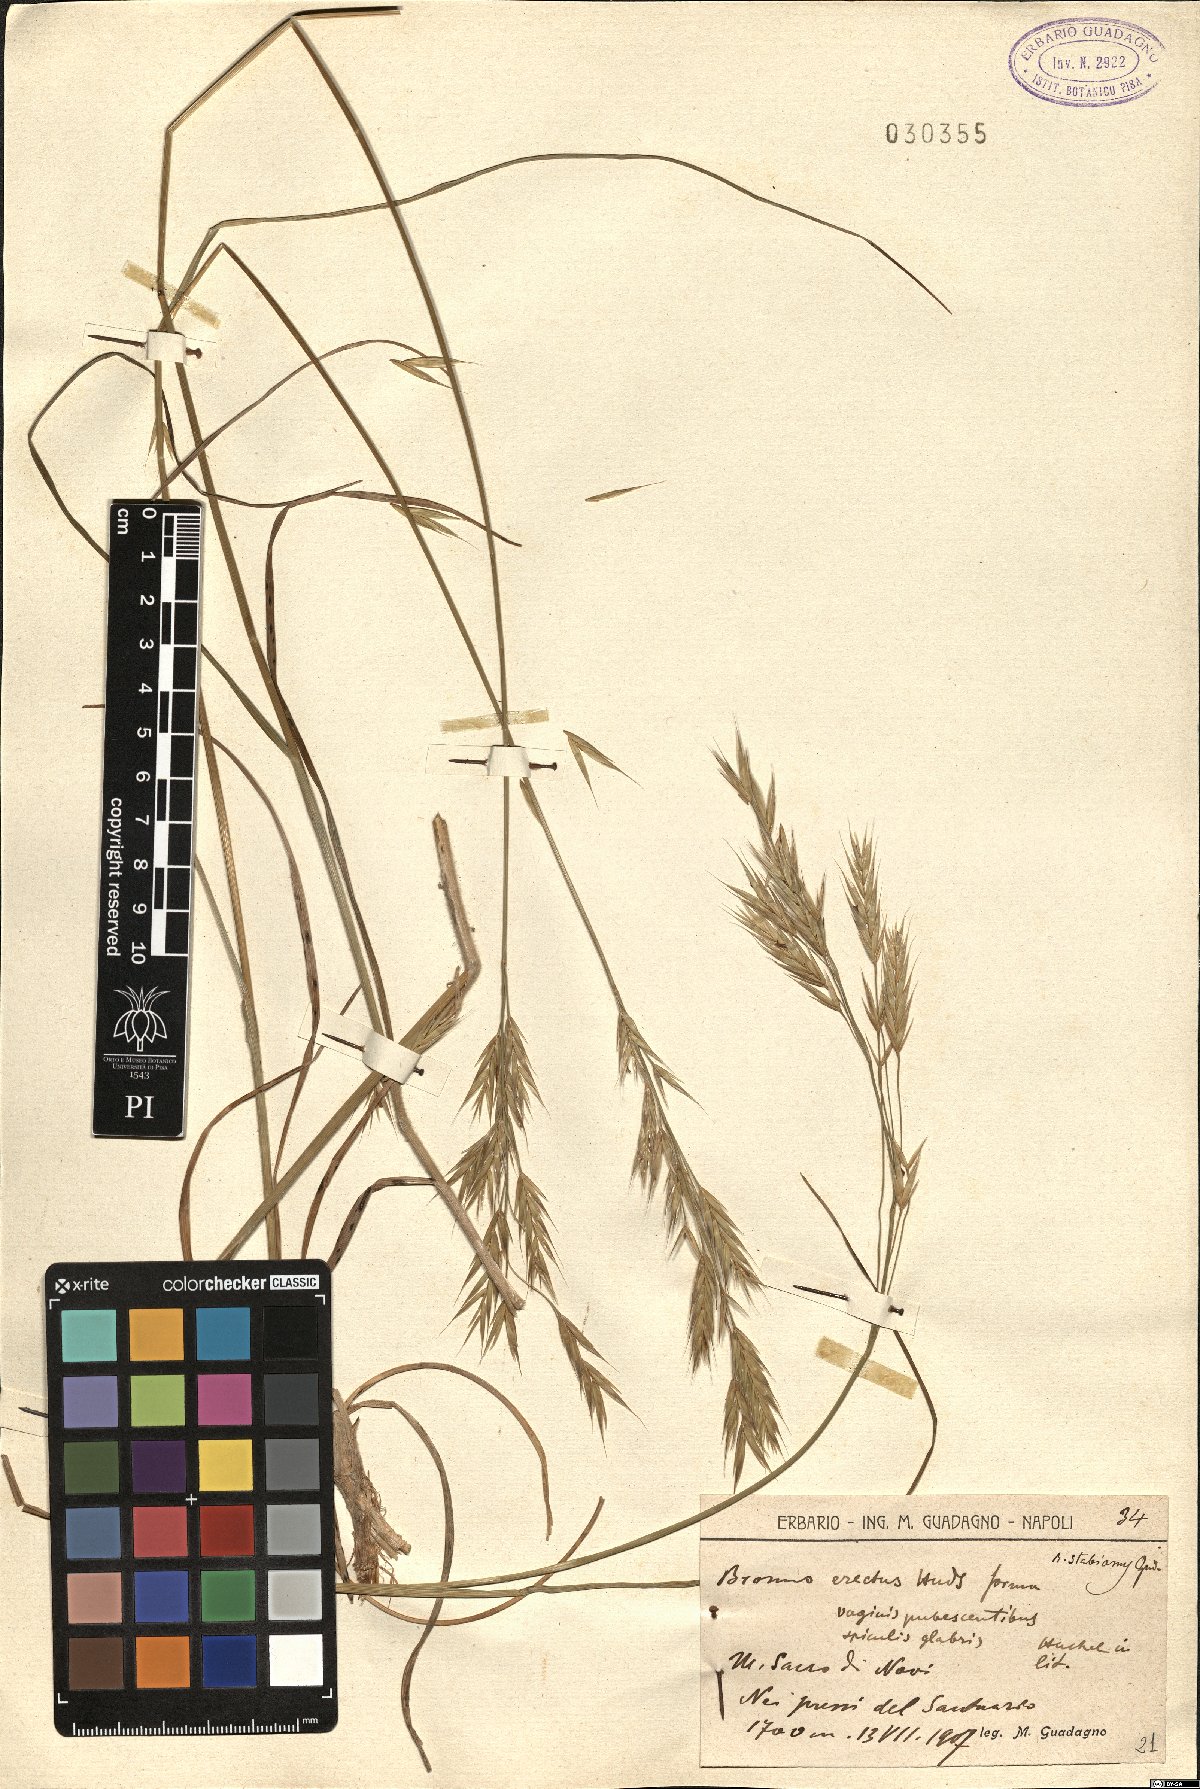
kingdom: Plantae
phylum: Tracheophyta
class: Liliopsida
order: Poales
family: Poaceae
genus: Bromus
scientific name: Bromus erectus
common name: Erect brome
